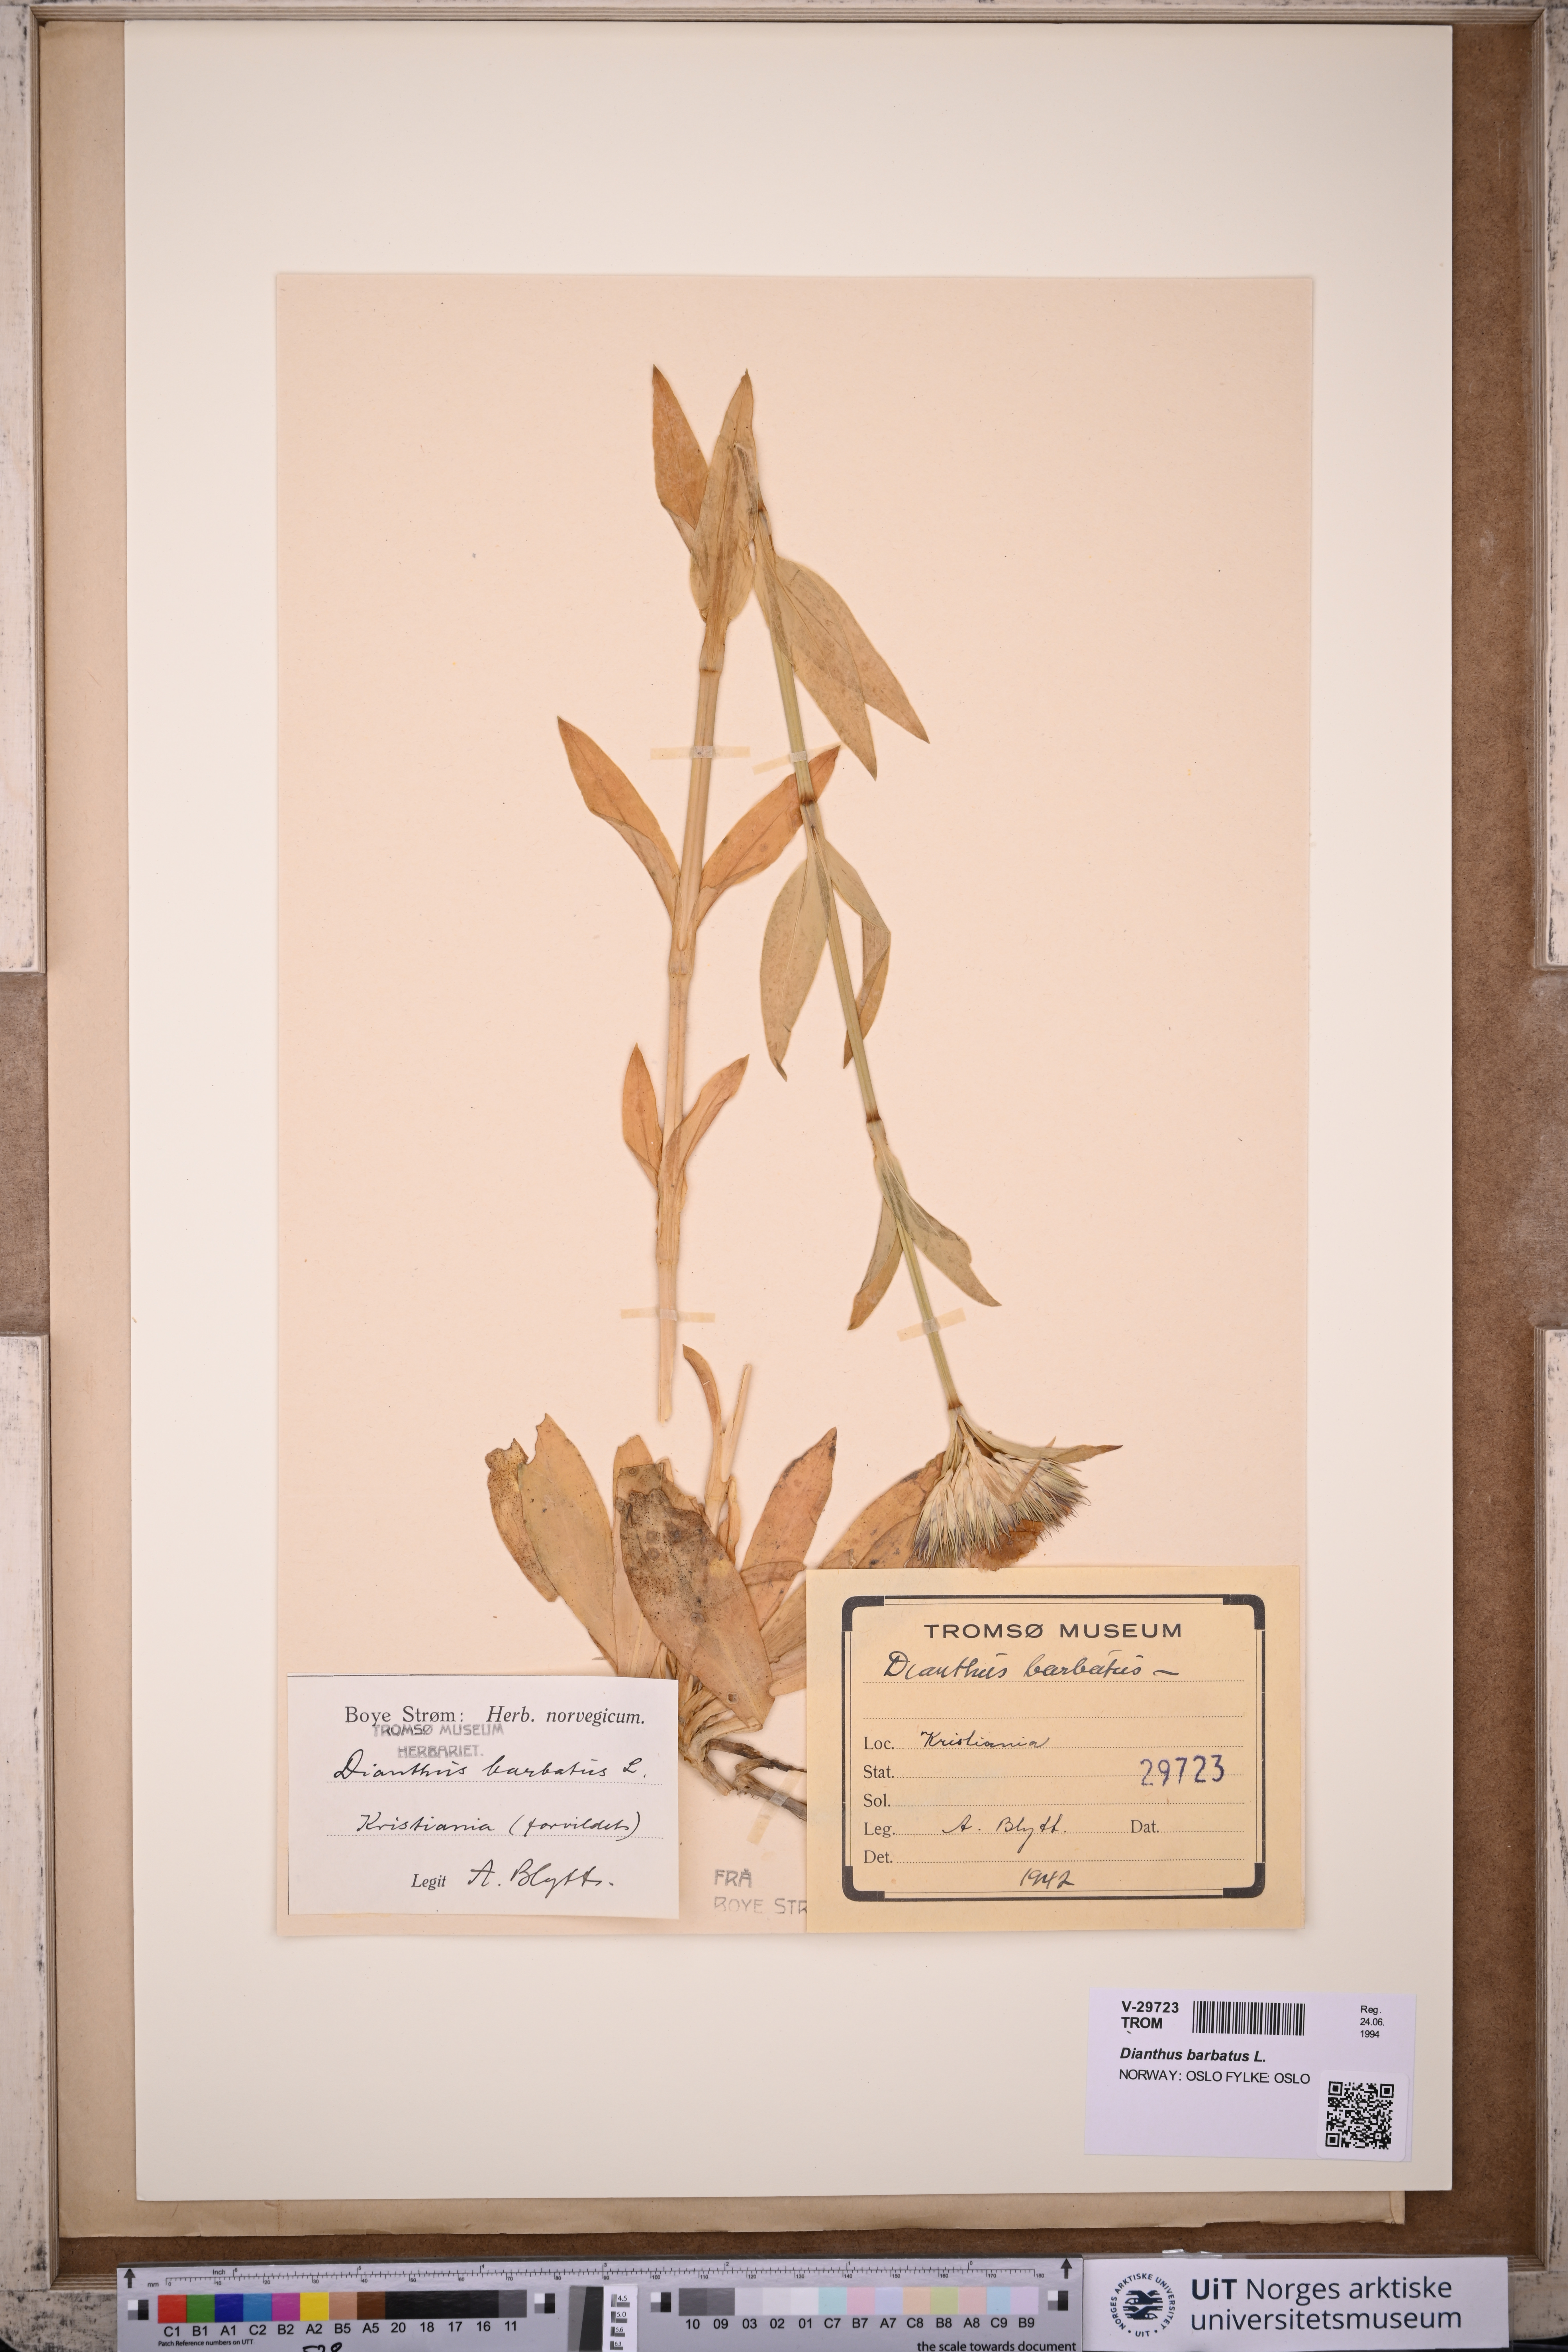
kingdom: Plantae
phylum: Tracheophyta
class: Magnoliopsida
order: Caryophyllales
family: Caryophyllaceae
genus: Dianthus
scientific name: Dianthus barbatus
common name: Sweet-william
